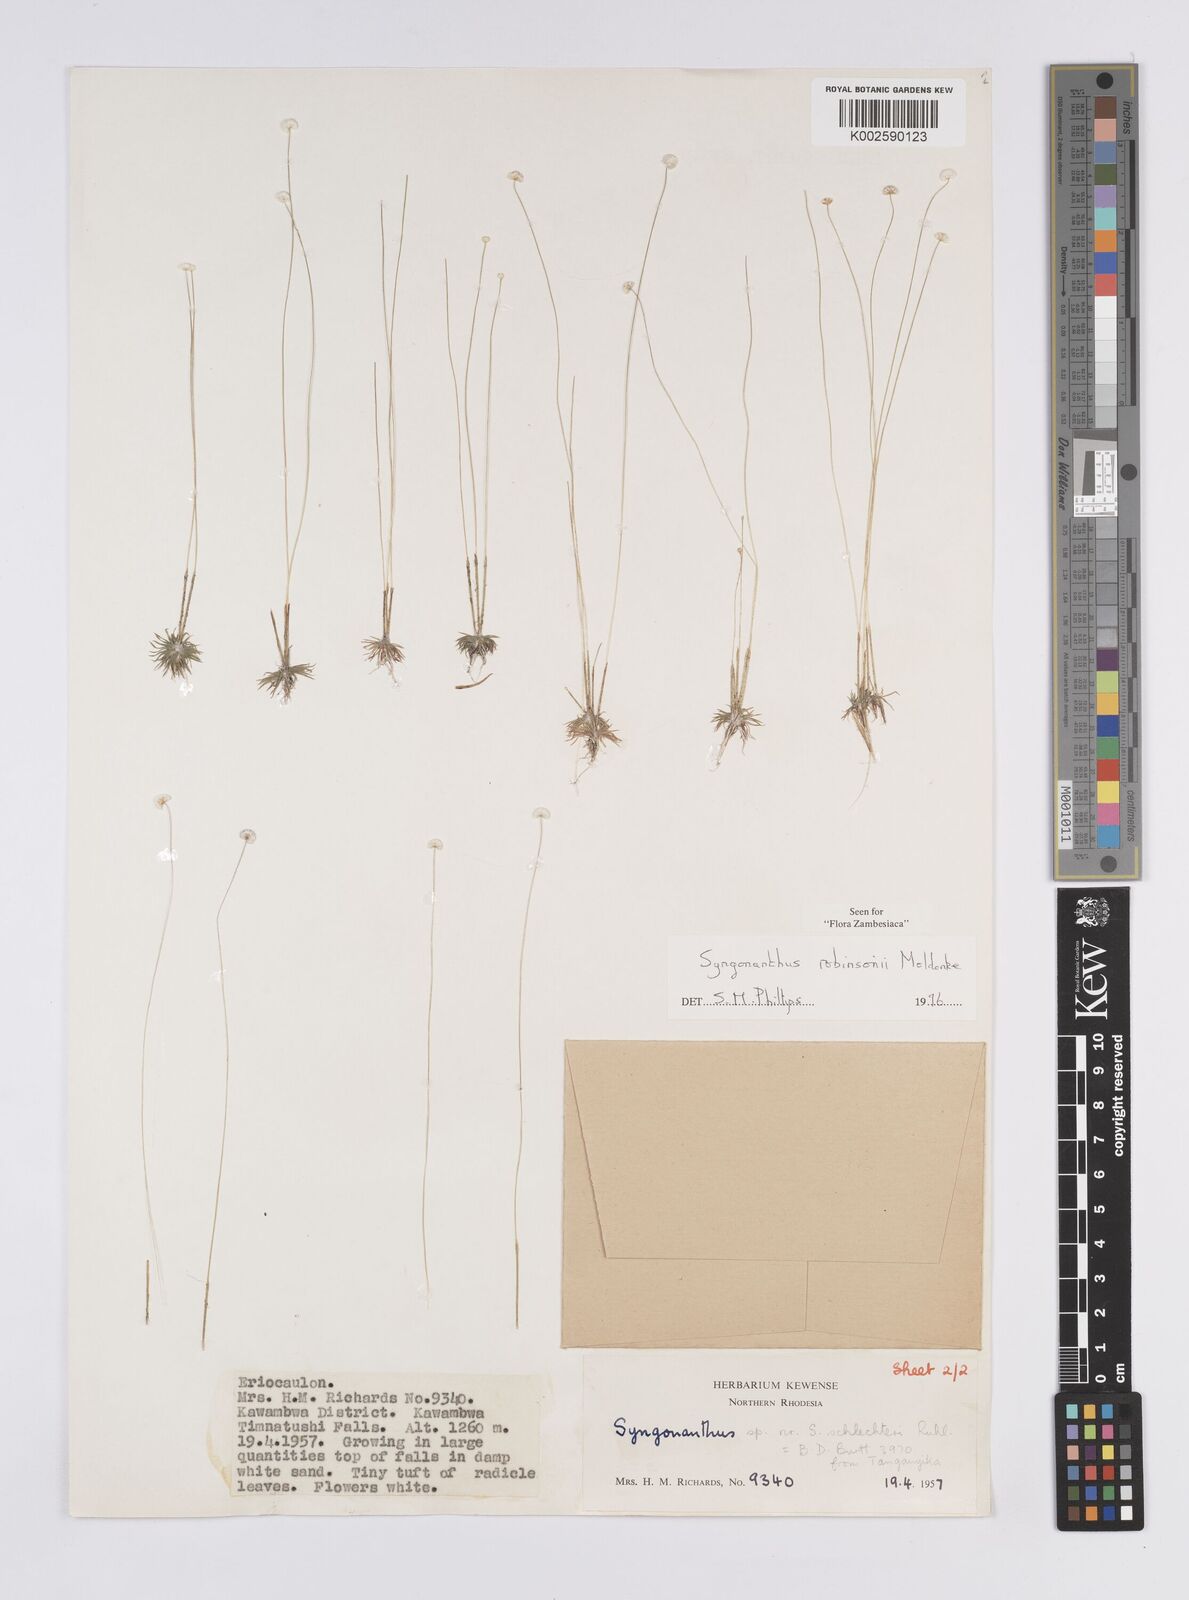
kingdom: Plantae
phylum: Tracheophyta
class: Liliopsida
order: Poales
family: Eriocaulaceae
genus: Syngonanthus
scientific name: Syngonanthus robinsonii
